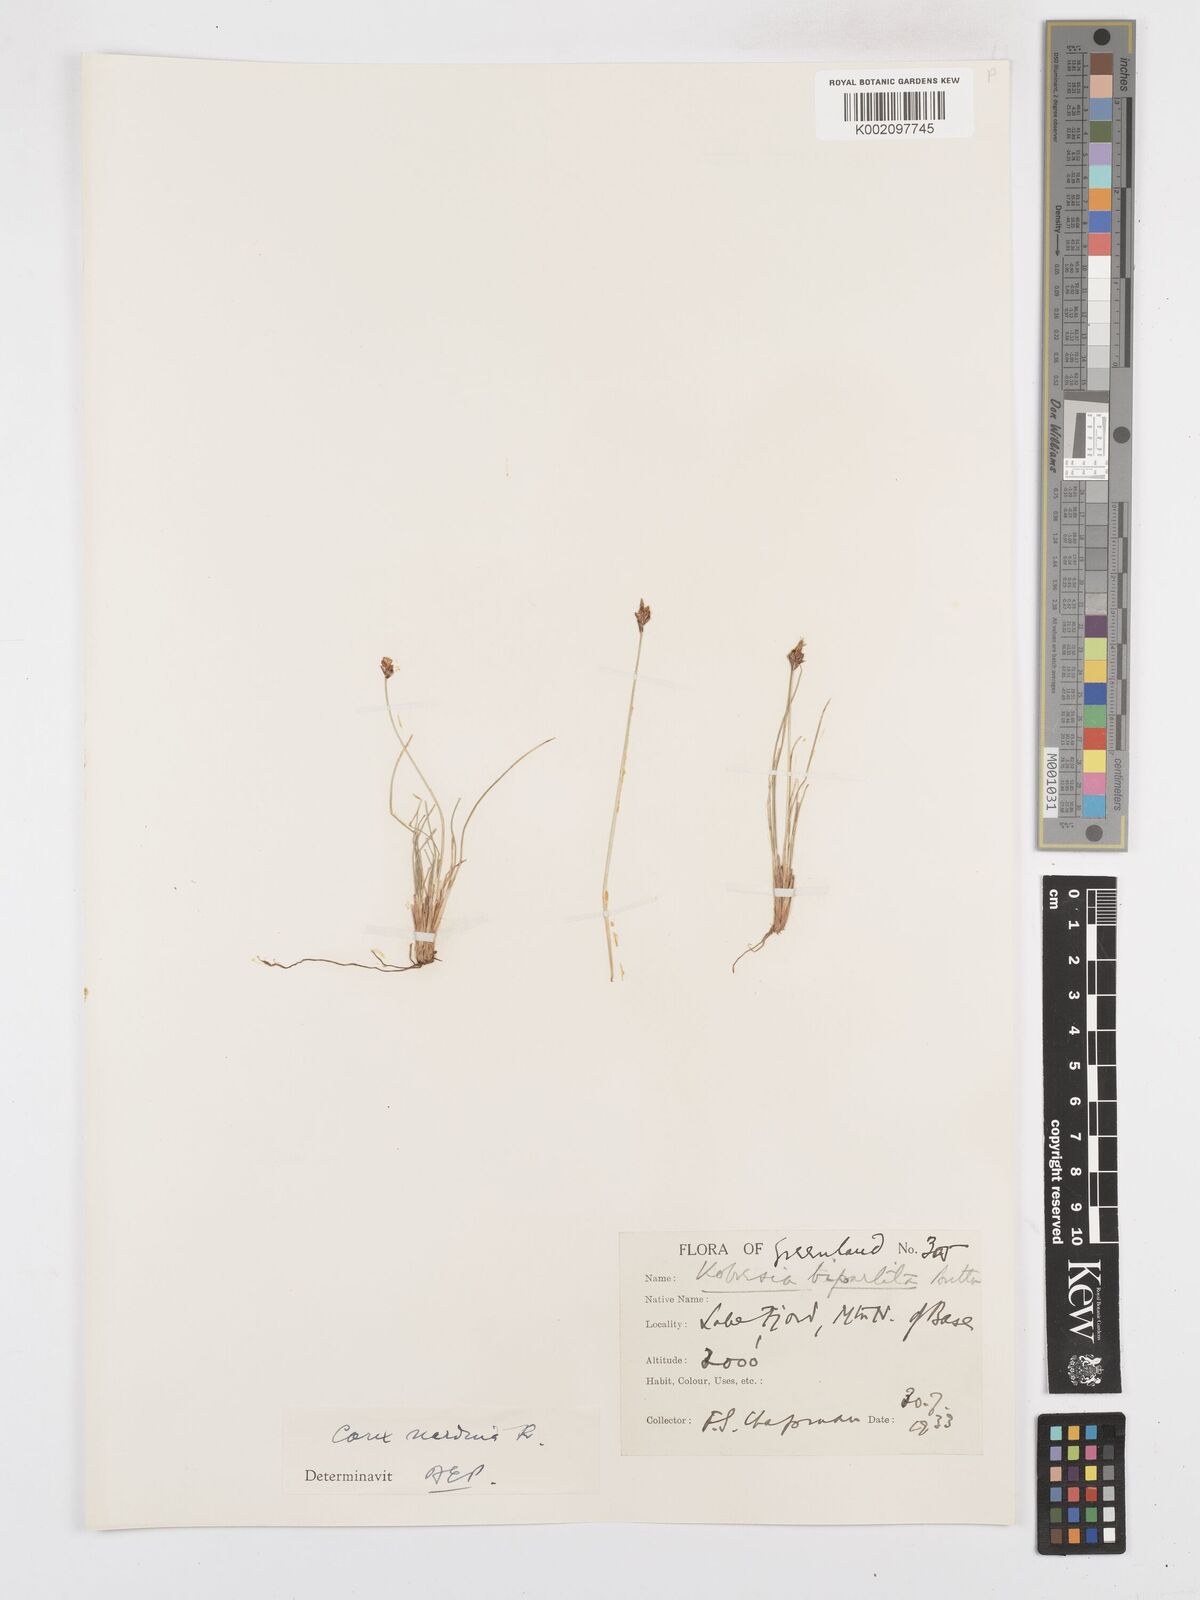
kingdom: Plantae
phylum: Tracheophyta
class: Liliopsida
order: Poales
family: Cyperaceae
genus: Carex
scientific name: Carex nardina
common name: Nard sedge
